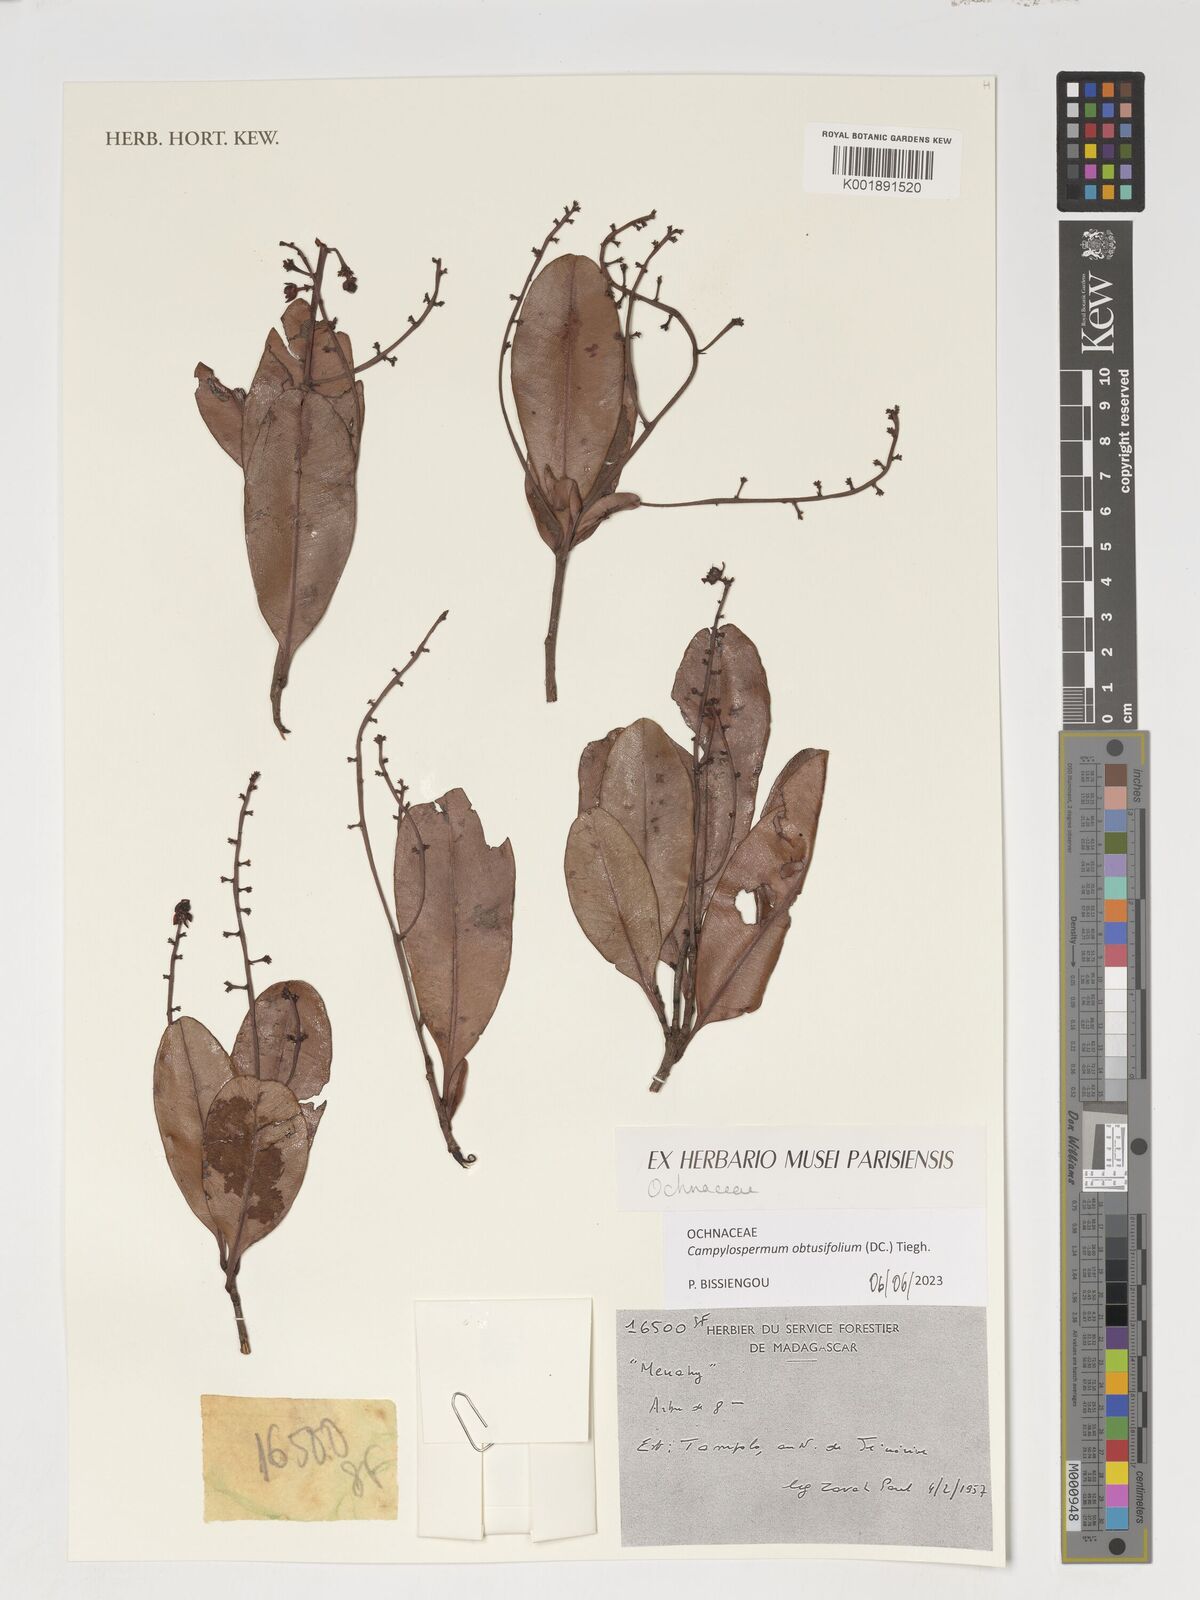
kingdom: Plantae
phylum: Tracheophyta
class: Magnoliopsida
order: Malpighiales
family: Ochnaceae
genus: Gomphia
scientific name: Gomphia obtusifolia
